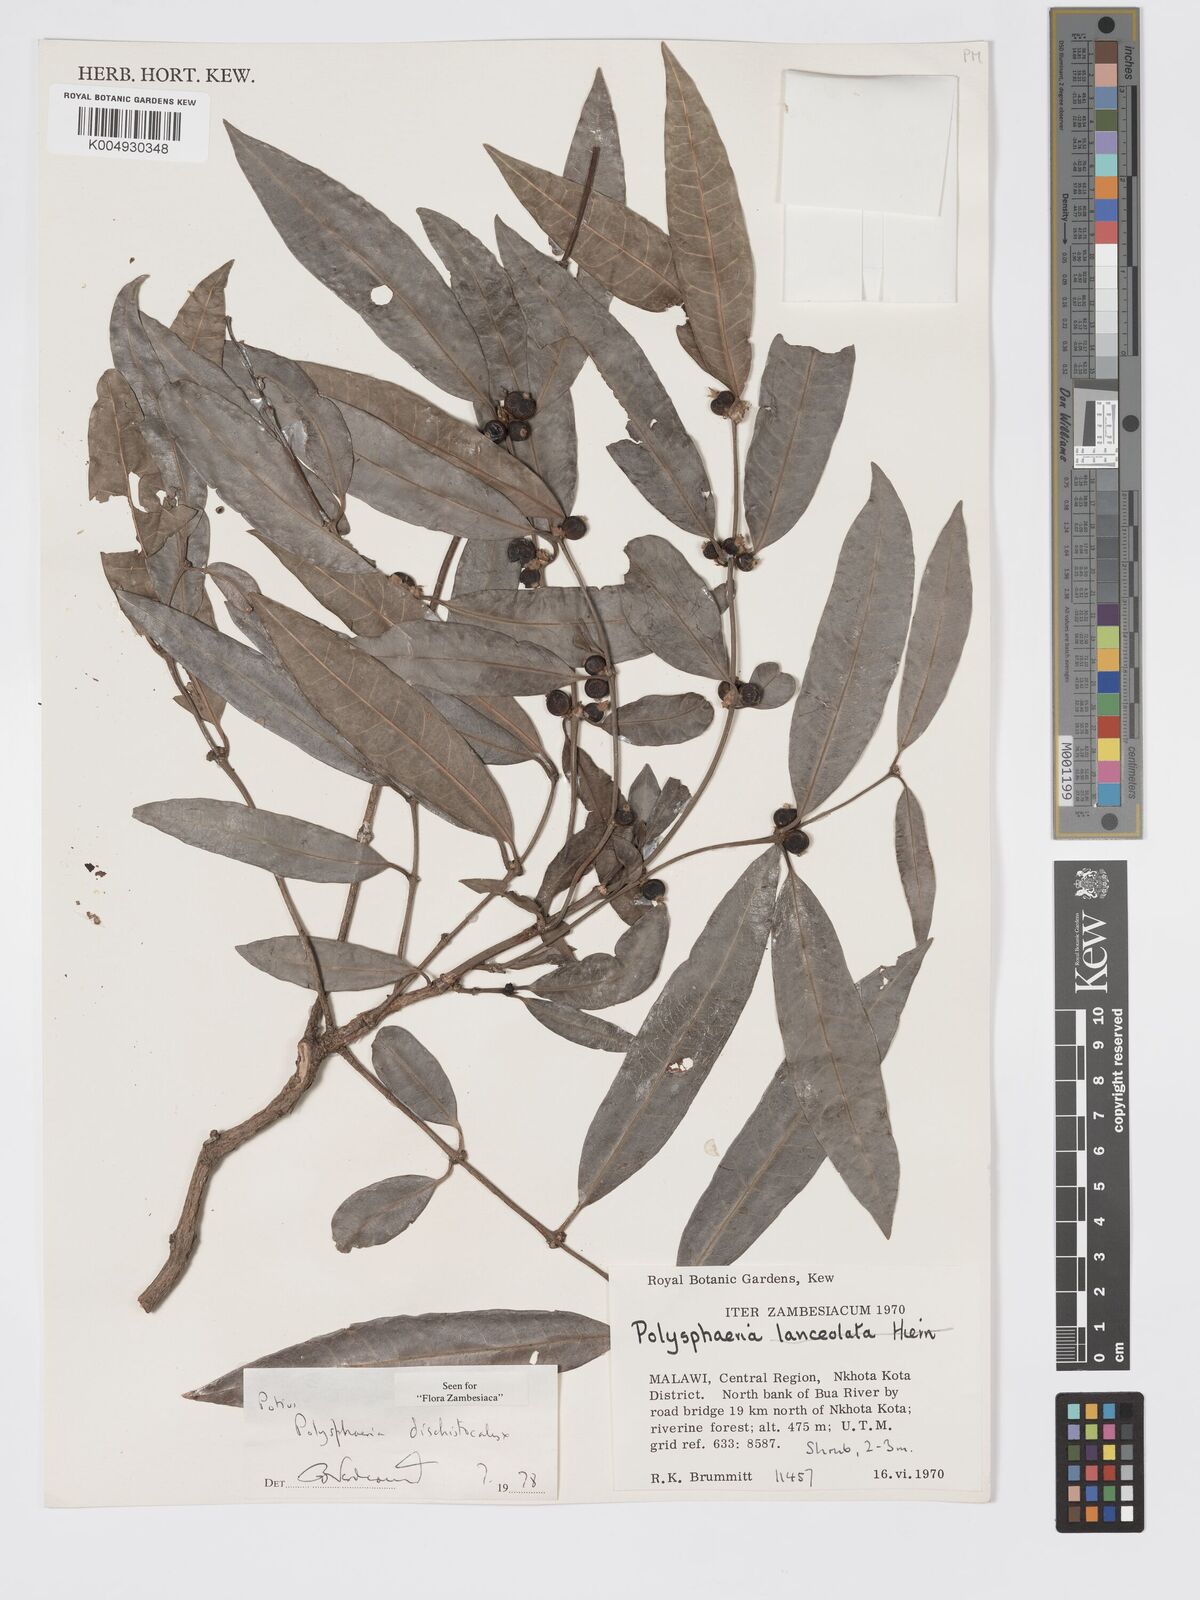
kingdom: Plantae
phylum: Tracheophyta
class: Magnoliopsida
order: Gentianales
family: Rubiaceae
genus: Polysphaeria
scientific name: Polysphaeria dischistocalyx
